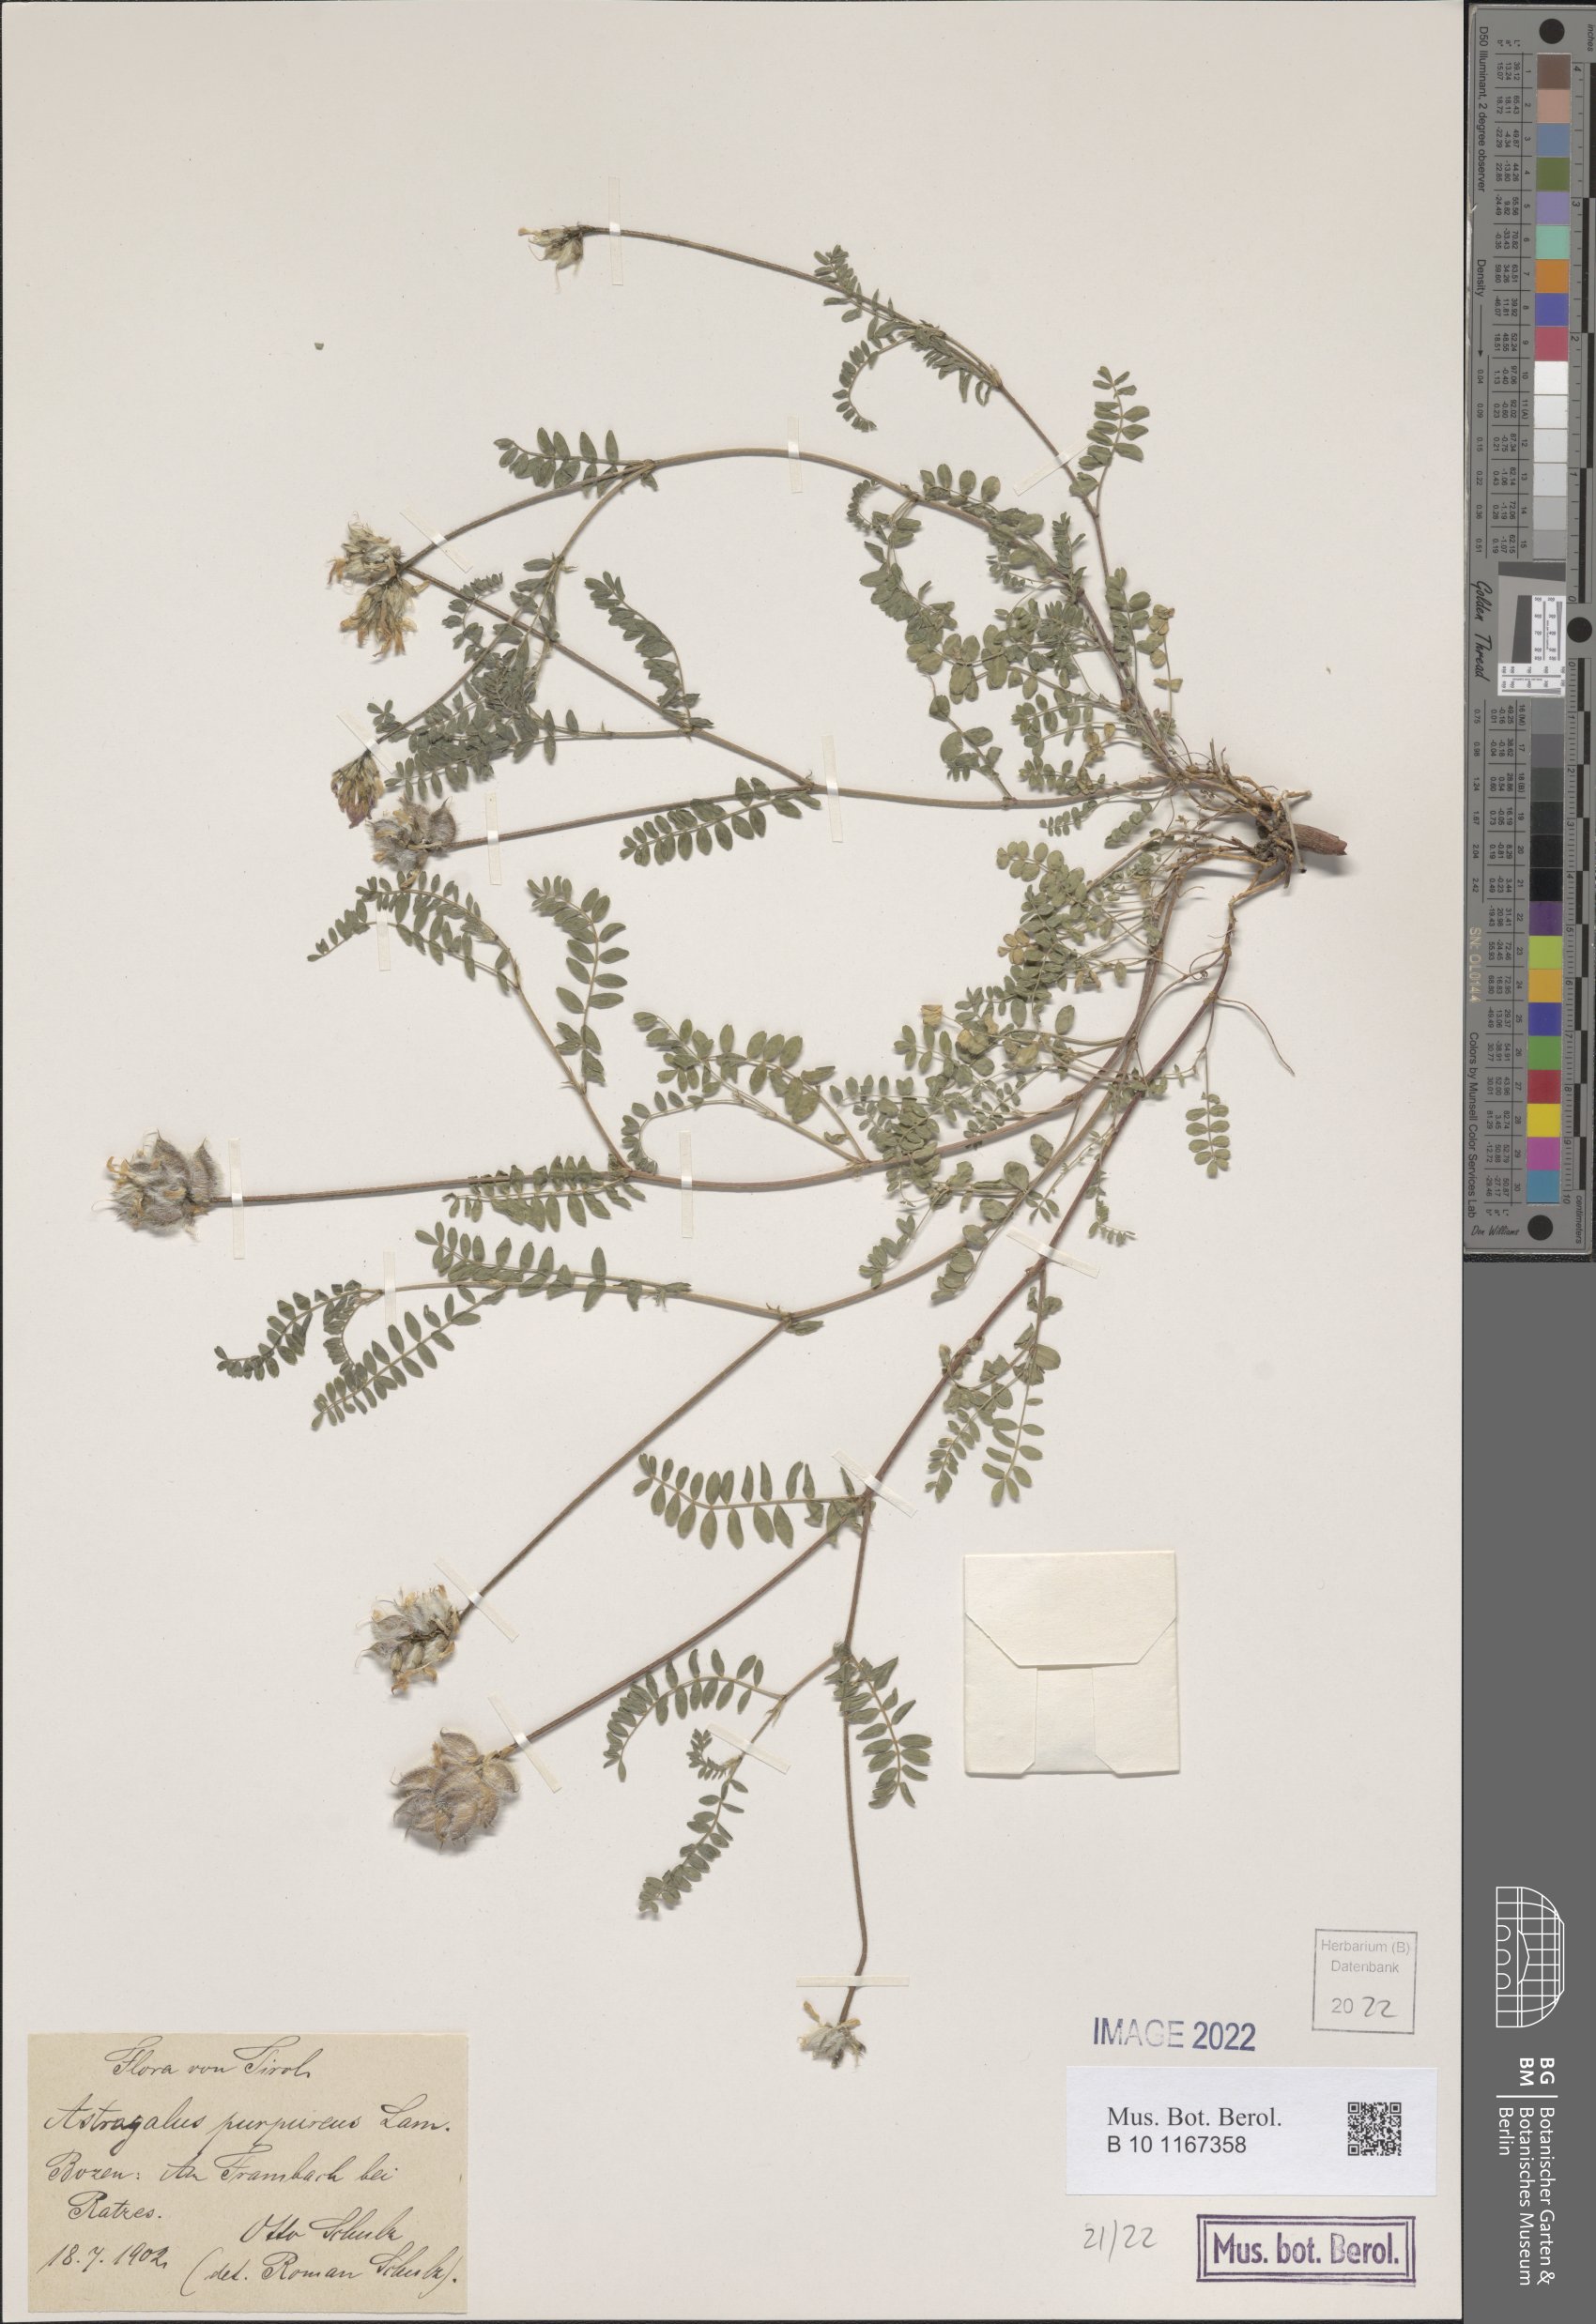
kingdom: Plantae
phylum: Tracheophyta
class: Magnoliopsida
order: Fabales
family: Fabaceae
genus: Astragalus
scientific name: Astragalus hypoglottis
